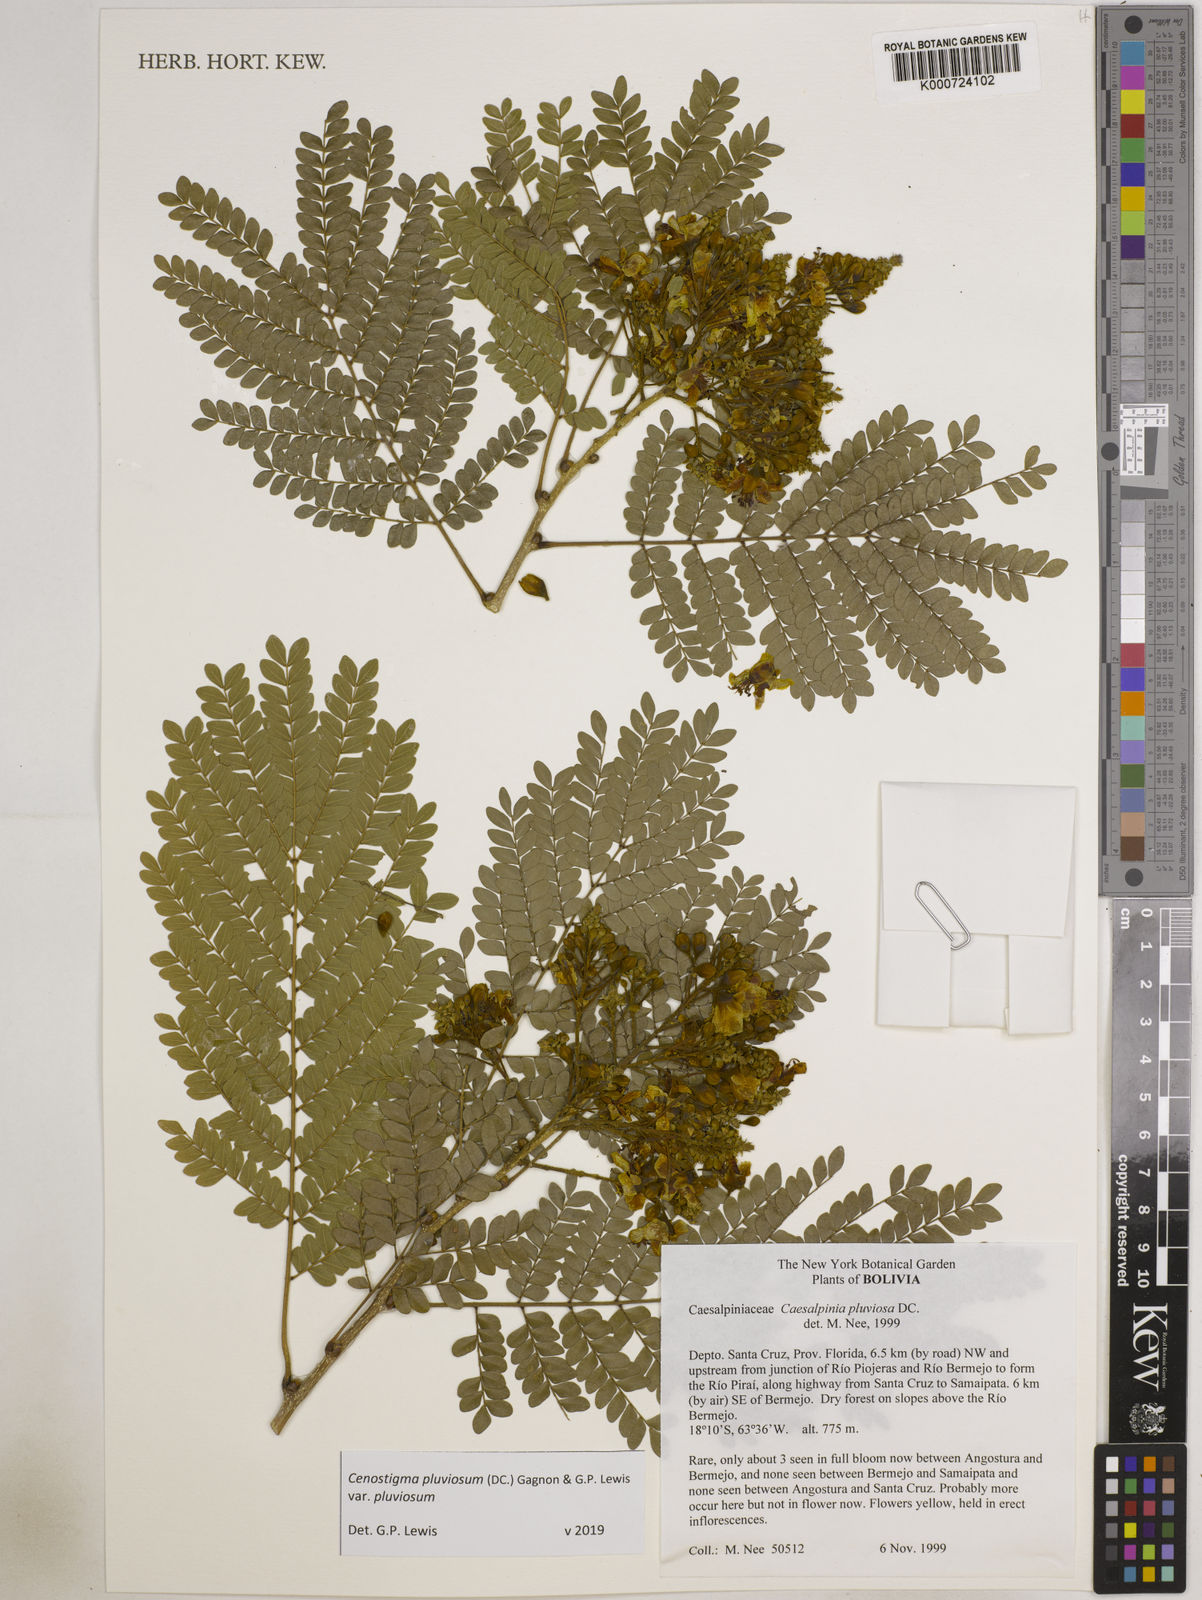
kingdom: Plantae
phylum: Tracheophyta
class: Magnoliopsida
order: Fabales
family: Fabaceae
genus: Cenostigma
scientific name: Cenostigma pluviosum
